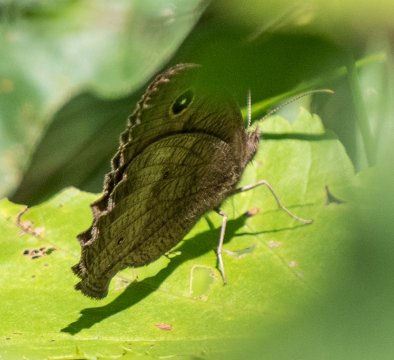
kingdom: Animalia
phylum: Arthropoda
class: Insecta
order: Lepidoptera
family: Nymphalidae
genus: Cercyonis
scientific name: Cercyonis pegala
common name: Common Wood-Nymph
